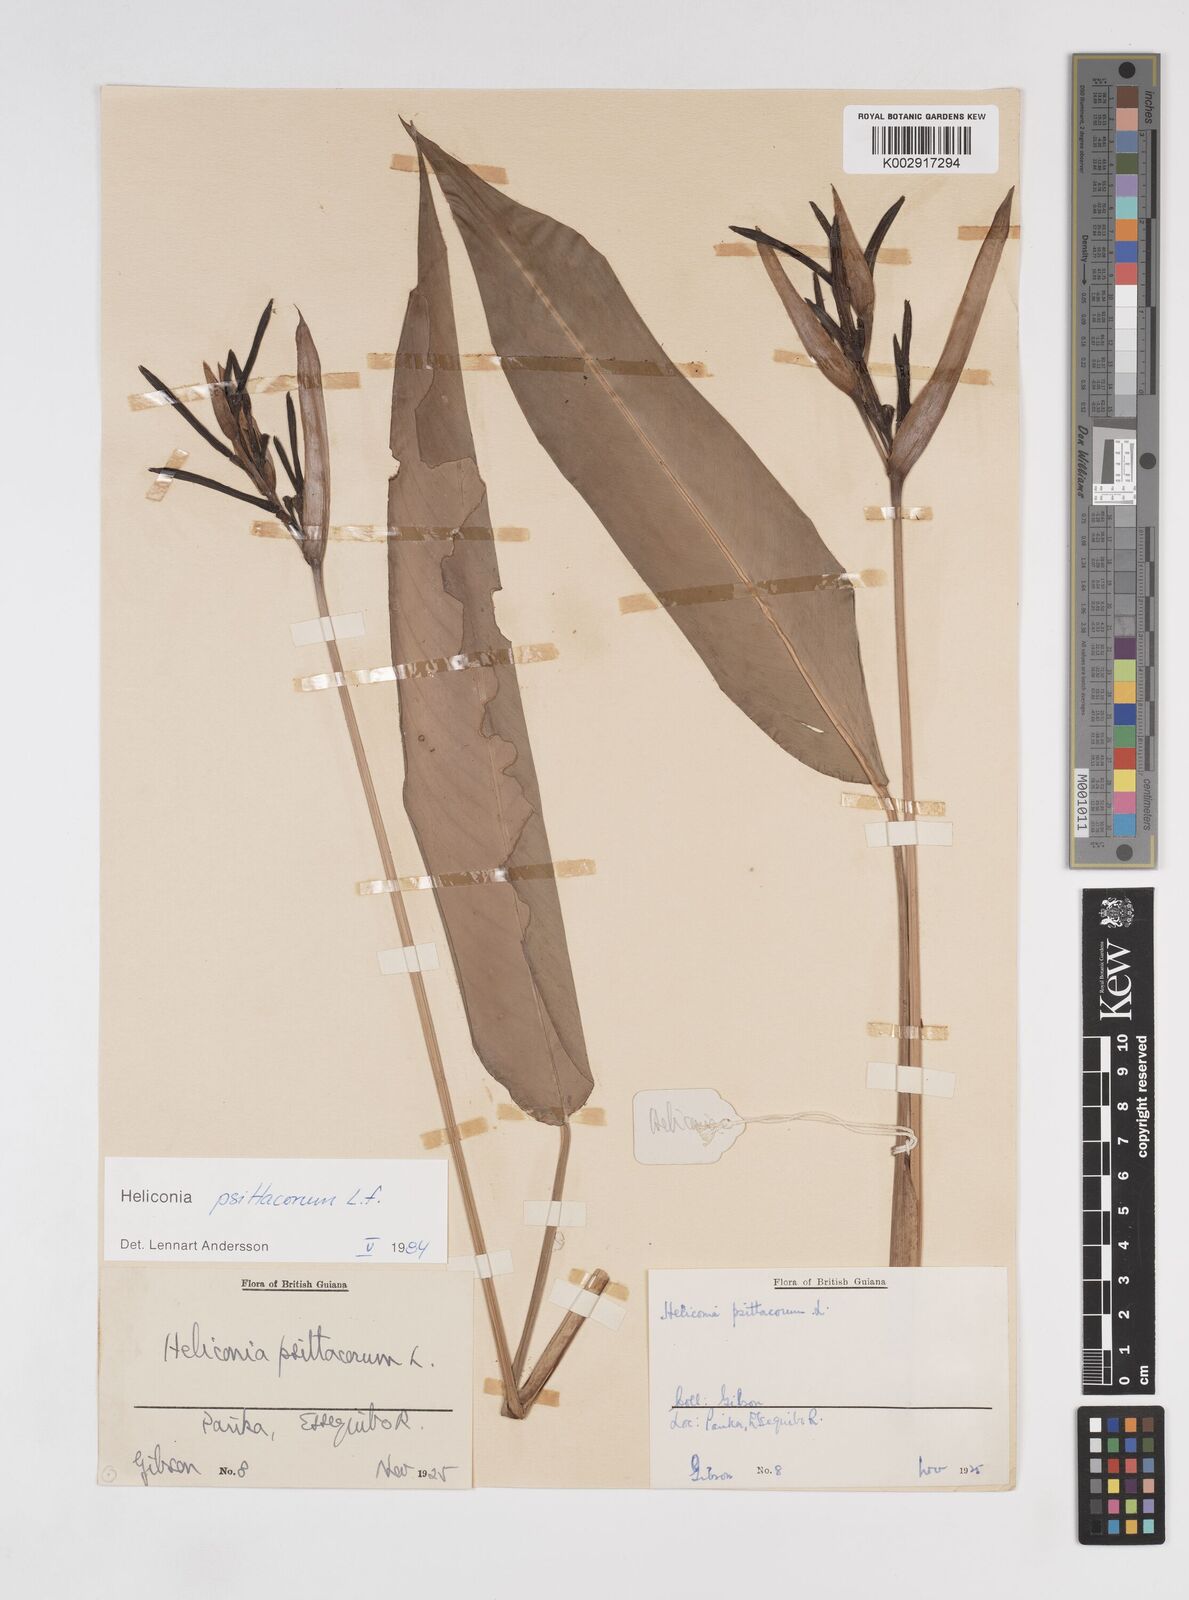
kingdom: Plantae
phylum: Tracheophyta
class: Liliopsida
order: Zingiberales
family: Heliconiaceae
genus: Heliconia
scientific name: Heliconia psittacorum
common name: Parrot's-flower
